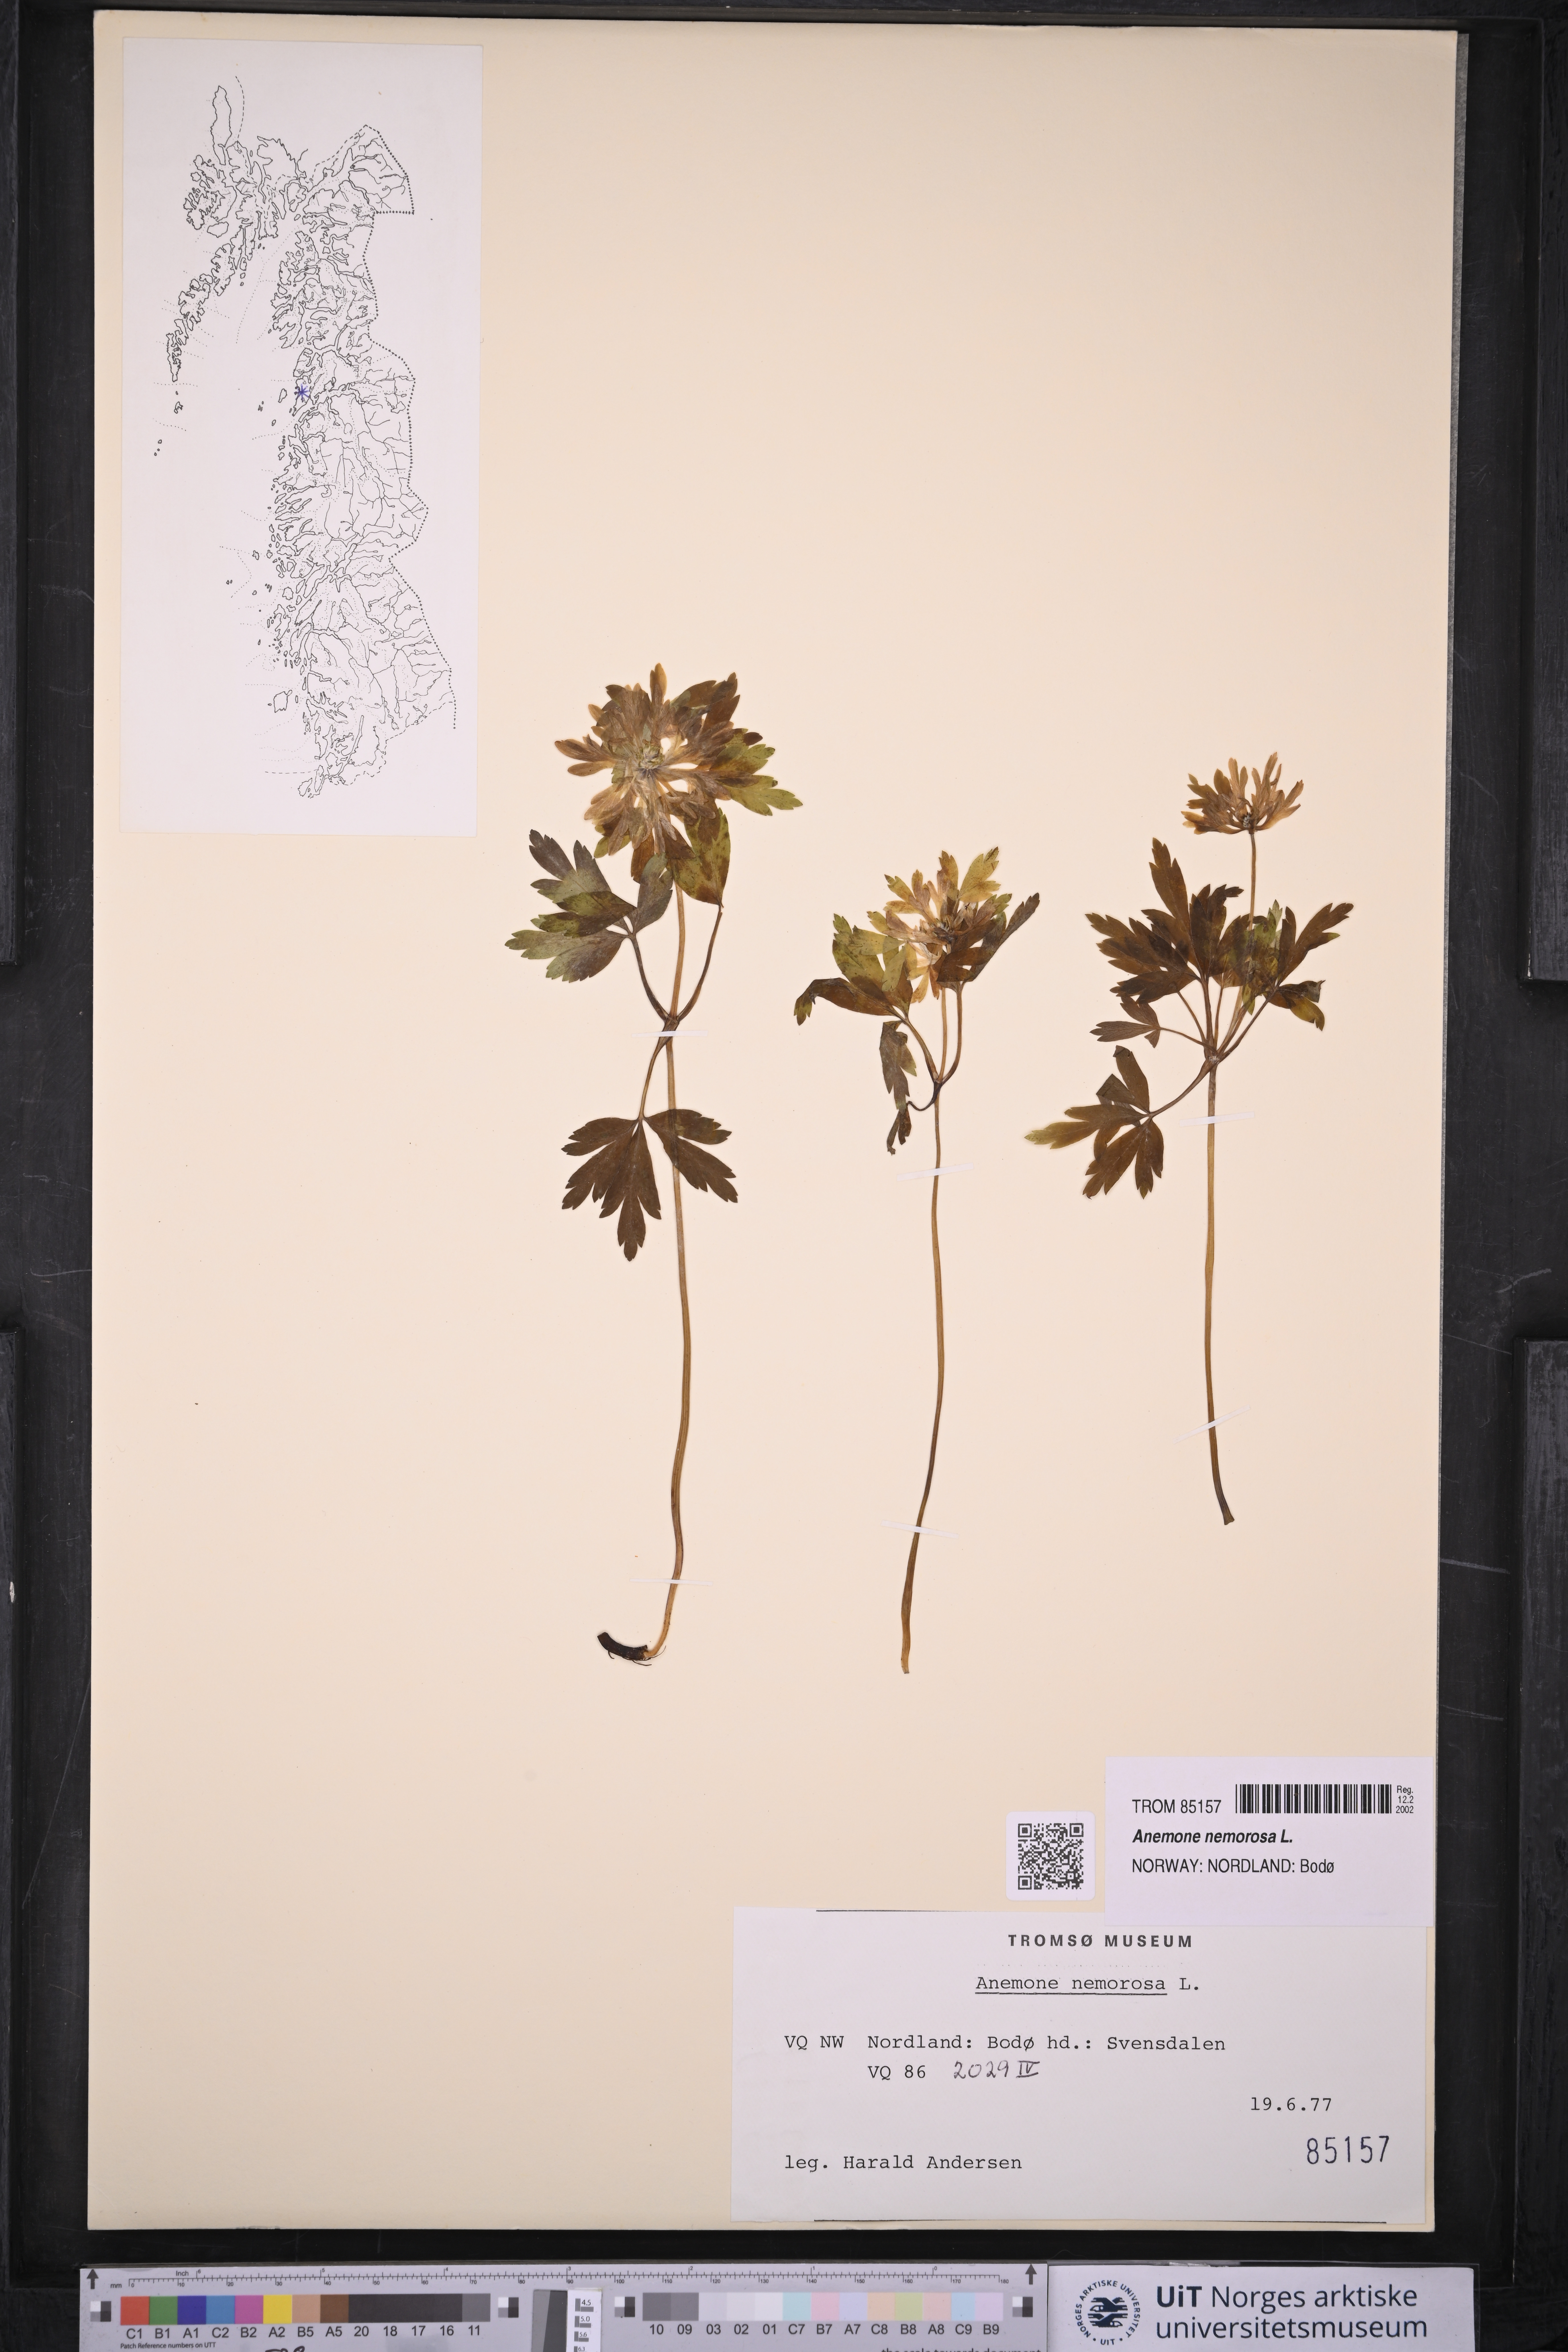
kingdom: Plantae
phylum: Tracheophyta
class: Magnoliopsida
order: Ranunculales
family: Ranunculaceae
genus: Anemone
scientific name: Anemone nemorosa
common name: Wood anemone
